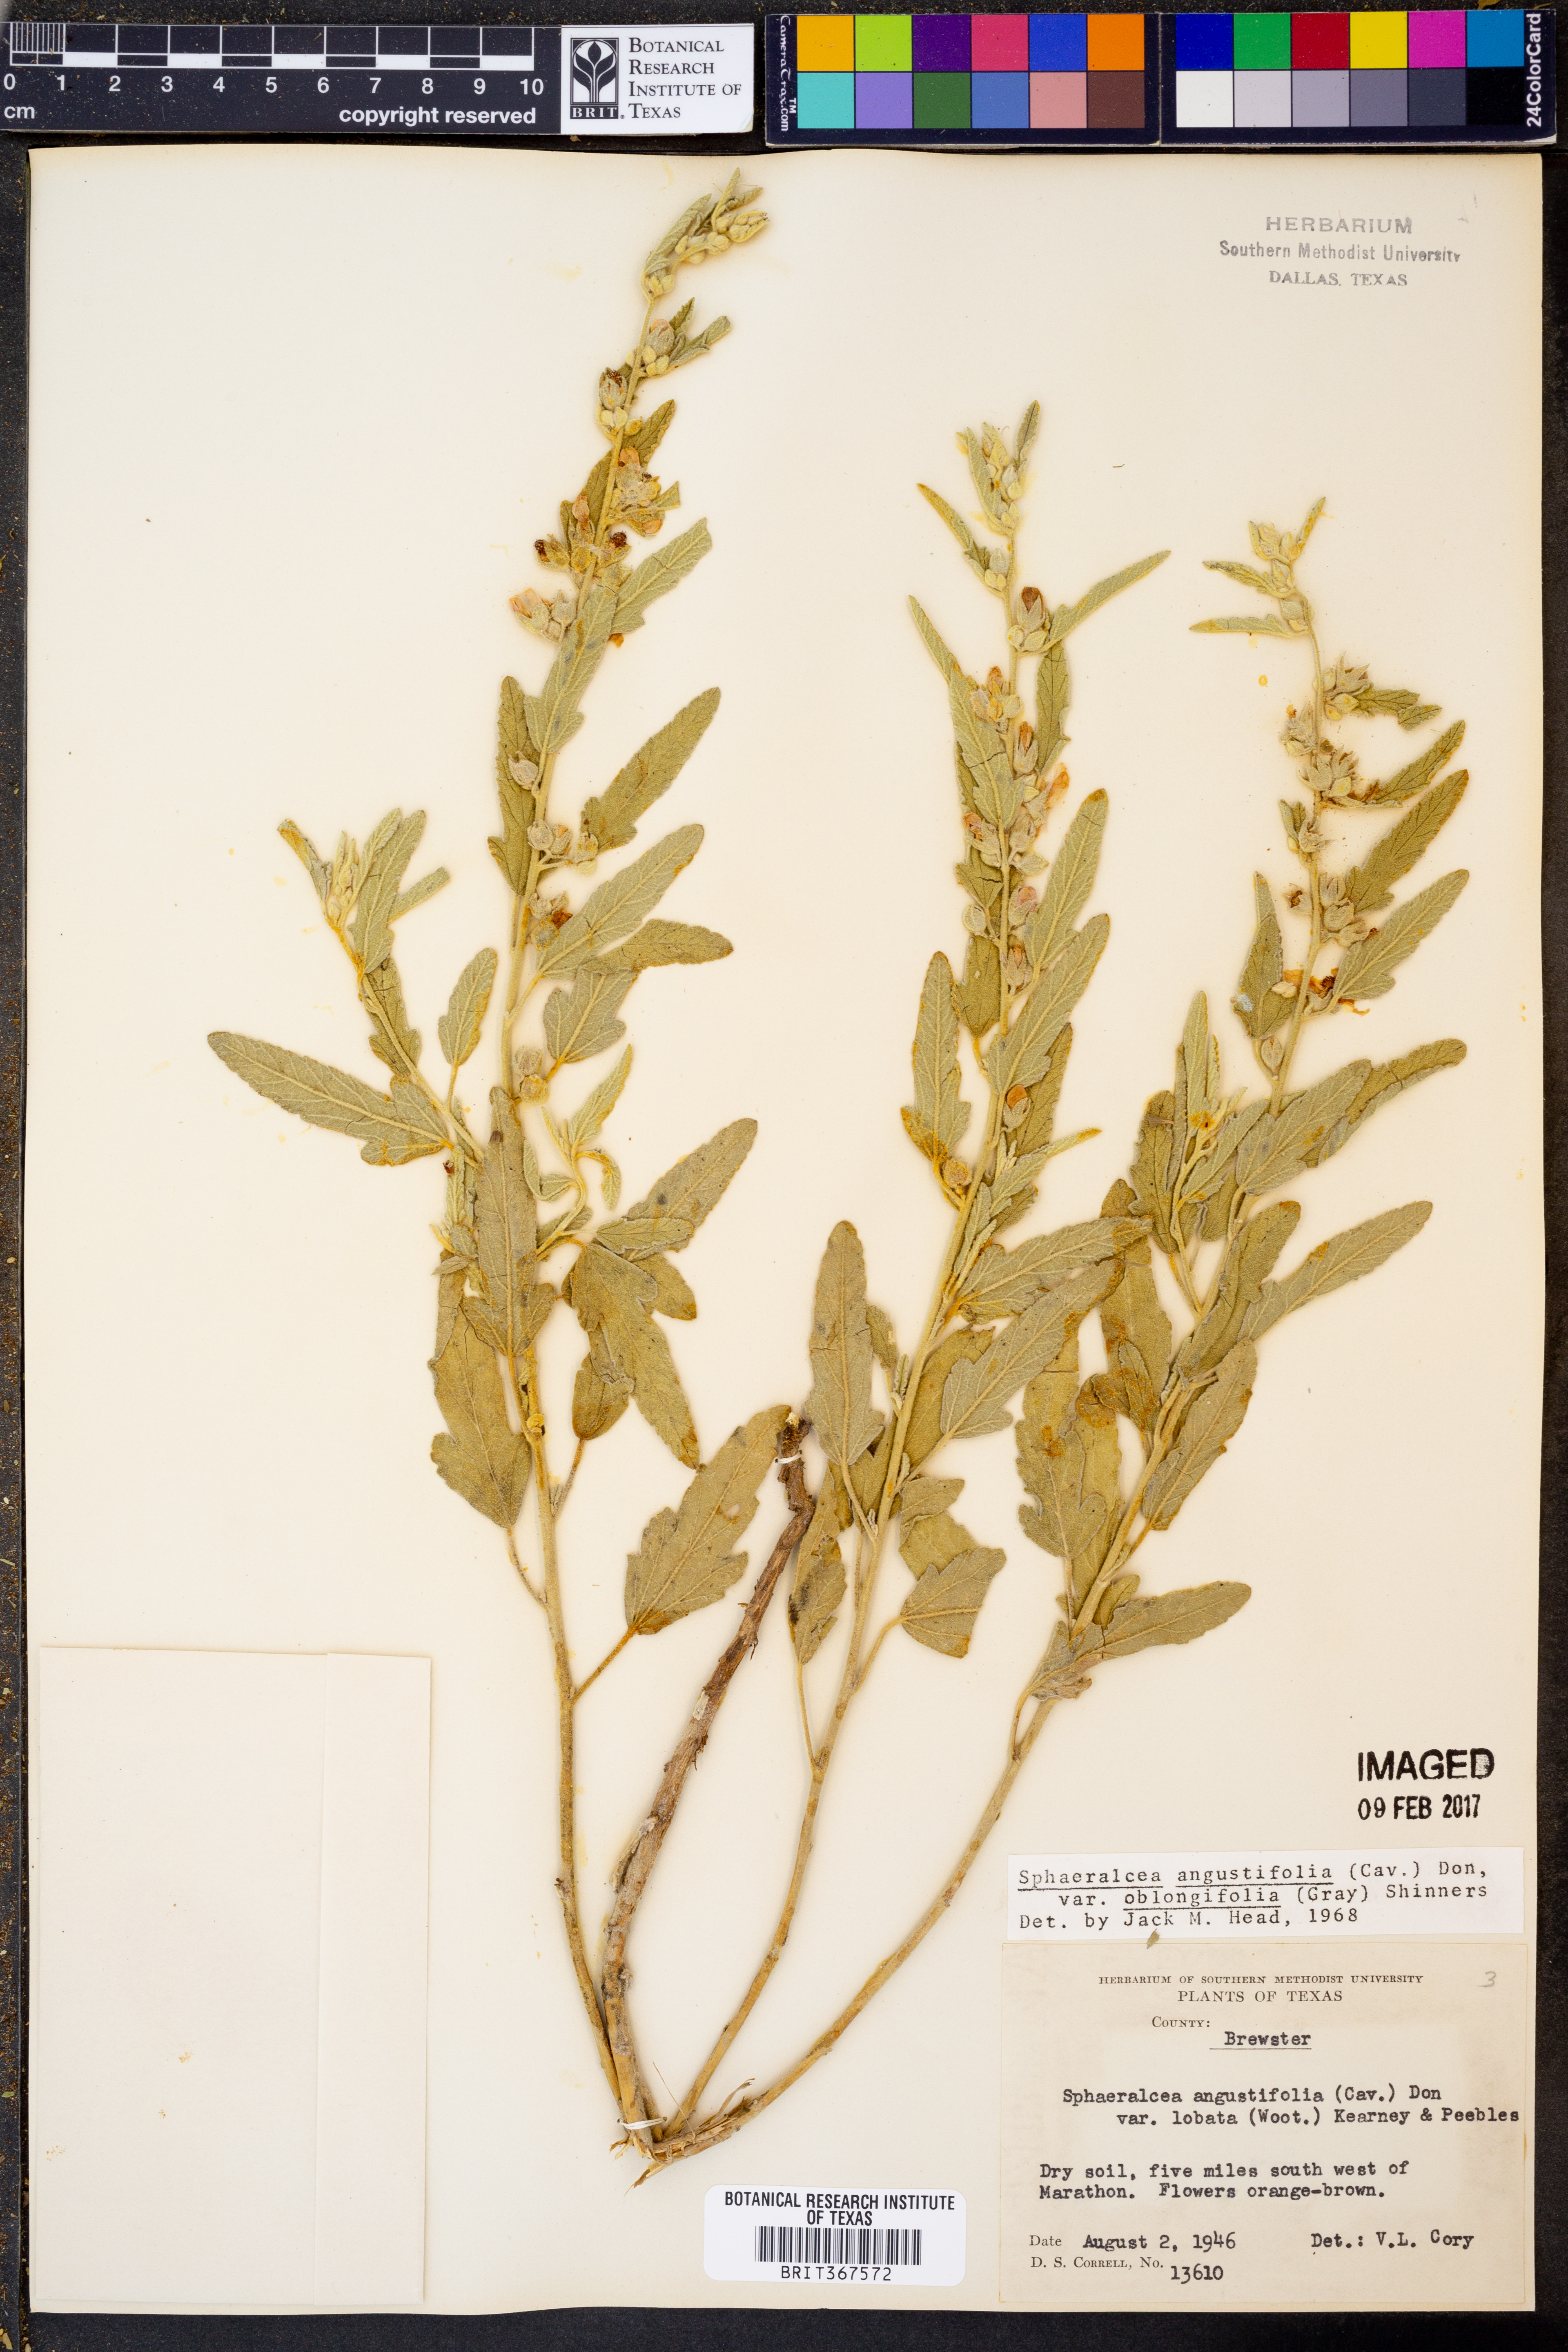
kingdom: Plantae
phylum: Tracheophyta
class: Magnoliopsida
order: Malvales
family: Malvaceae
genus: Sphaeralcea
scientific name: Sphaeralcea angustifolia
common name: Copper globe-mallow
